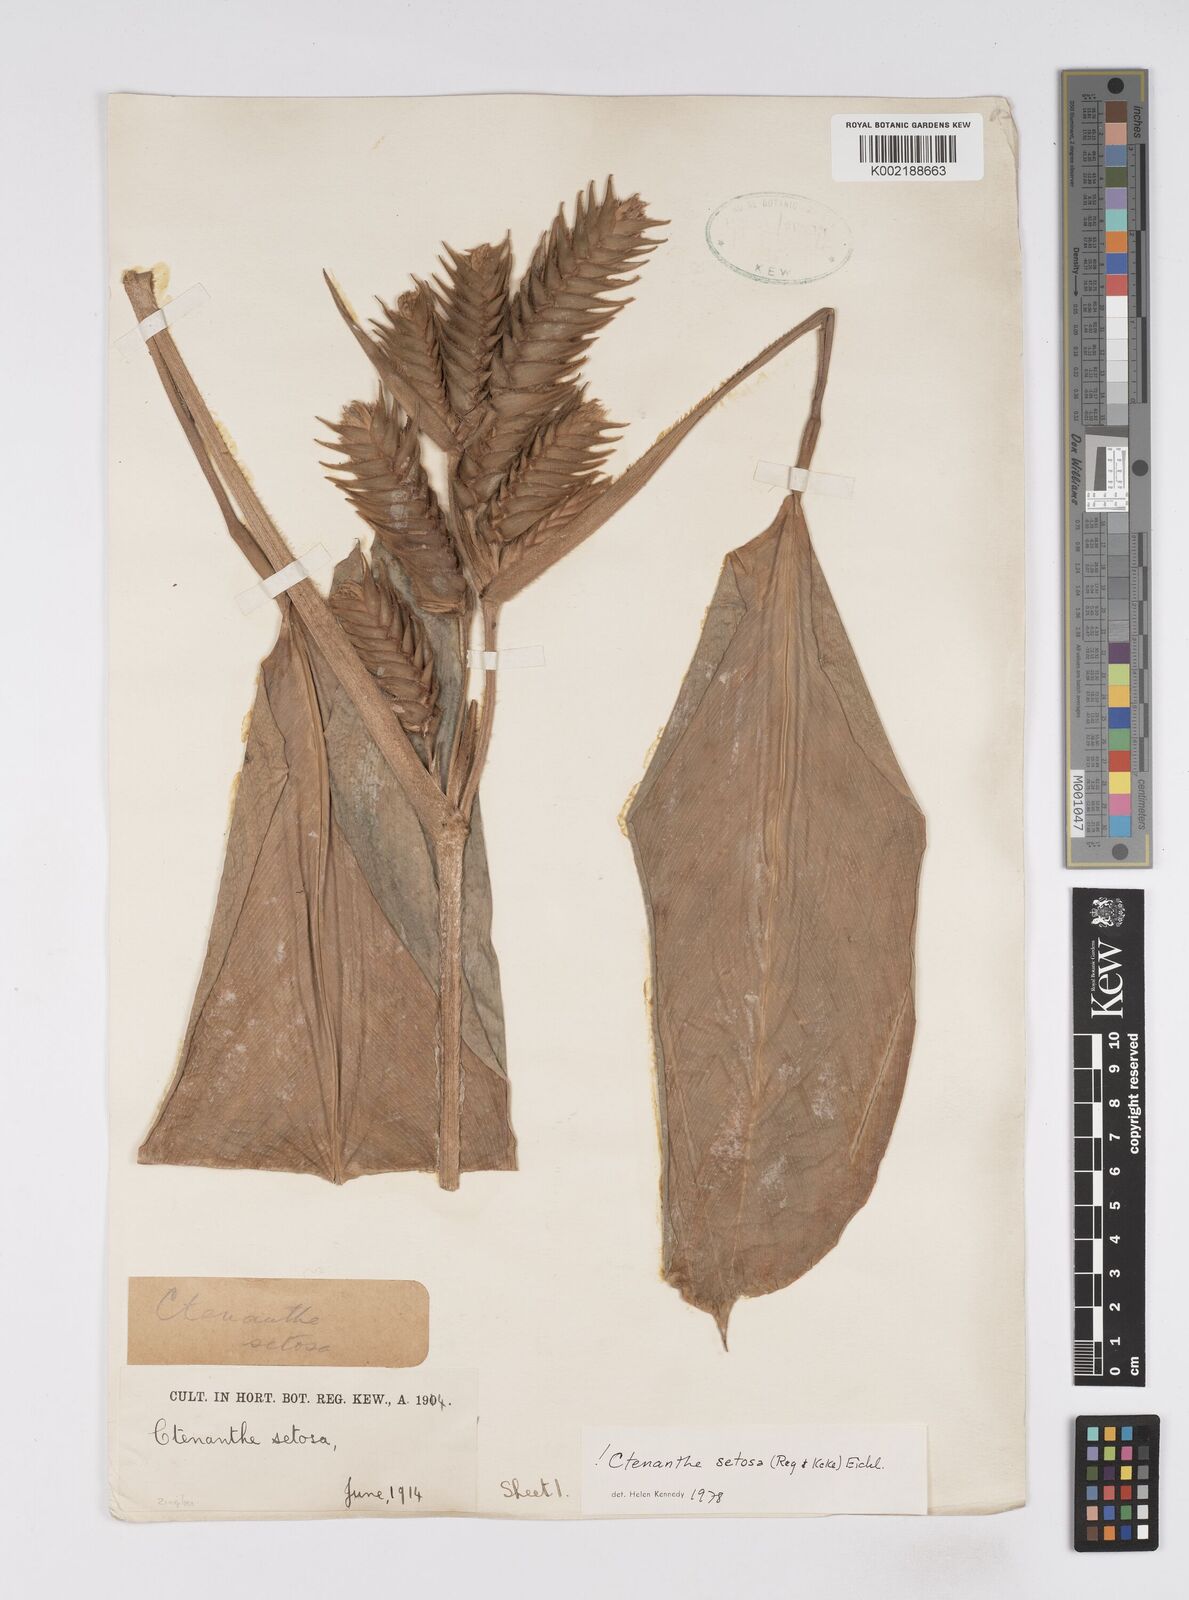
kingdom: Plantae
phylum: Tracheophyta
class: Liliopsida
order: Zingiberales
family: Marantaceae
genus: Ctenanthe
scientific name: Ctenanthe
